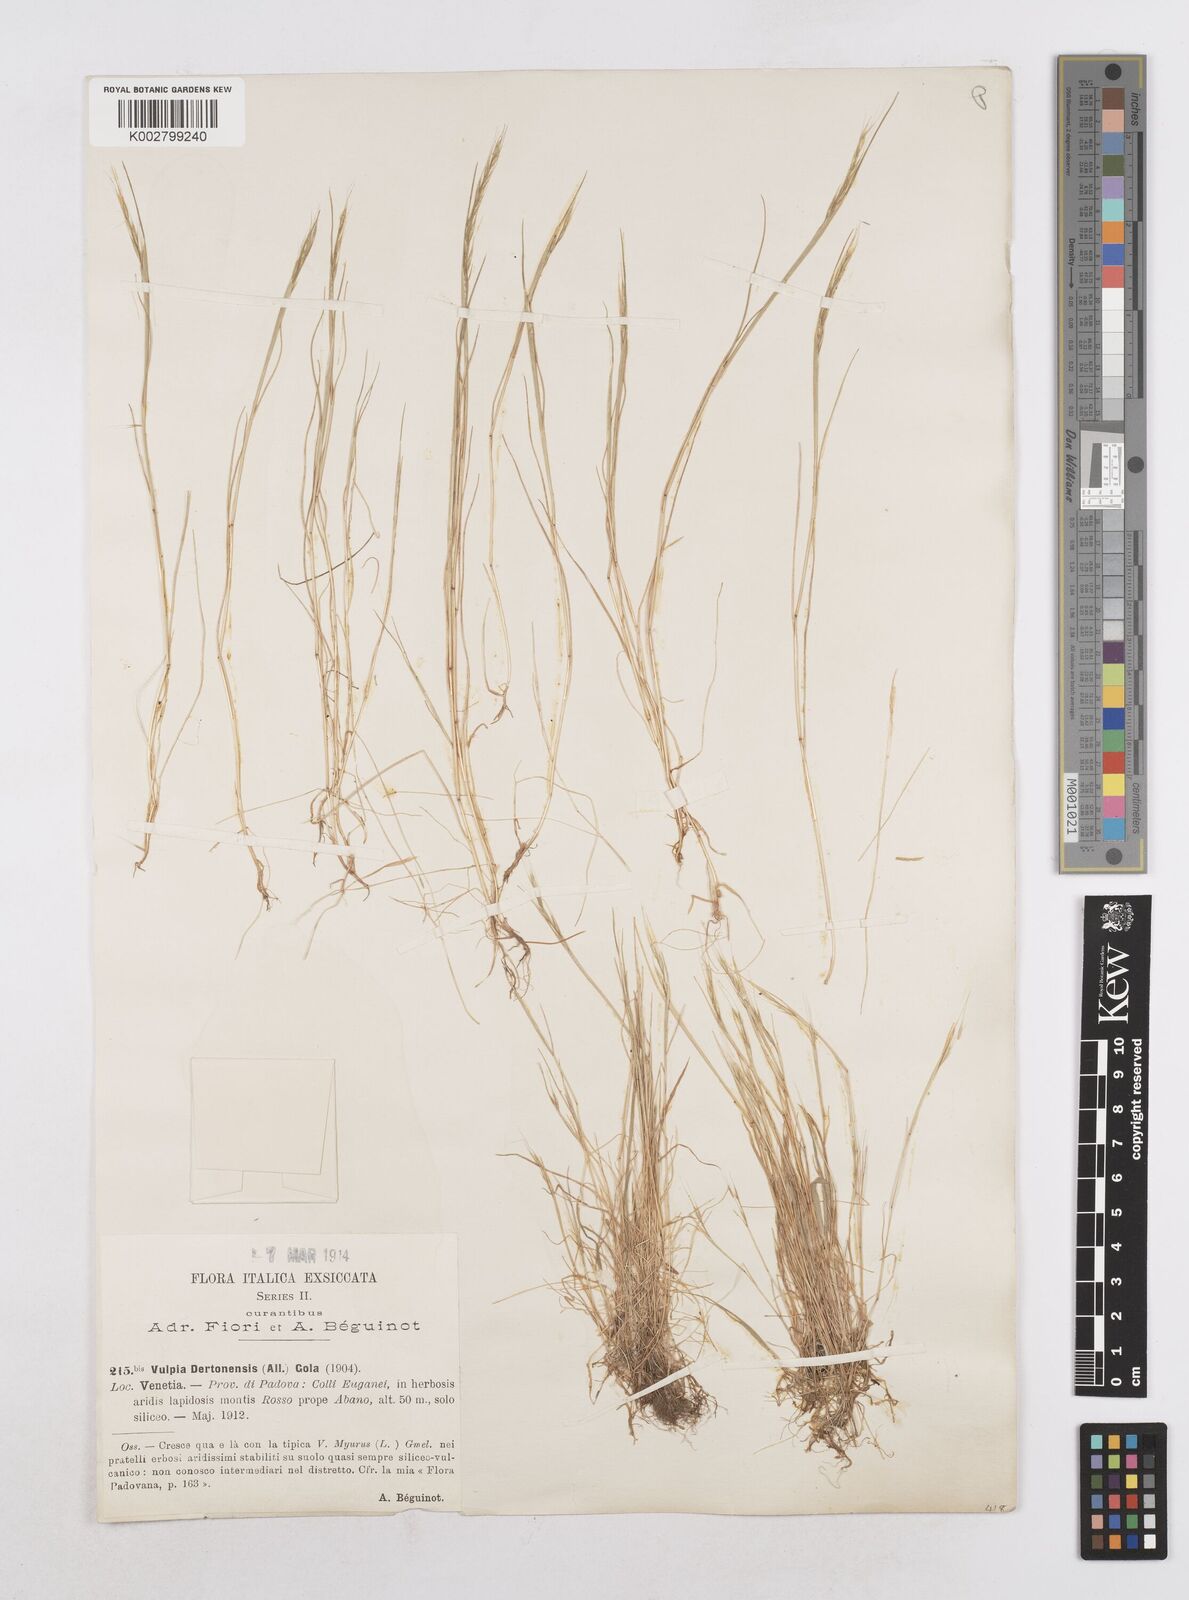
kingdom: Plantae
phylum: Tracheophyta
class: Liliopsida
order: Poales
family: Poaceae
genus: Festuca
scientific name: Festuca bromoides
